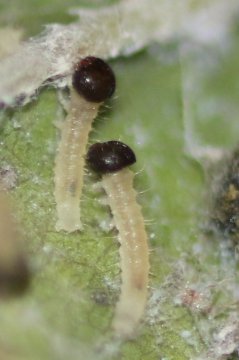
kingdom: Animalia
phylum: Arthropoda
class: Insecta
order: Lepidoptera
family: Nymphalidae
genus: Asterocampa
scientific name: Asterocampa celtis
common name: Hackberry Emperor
